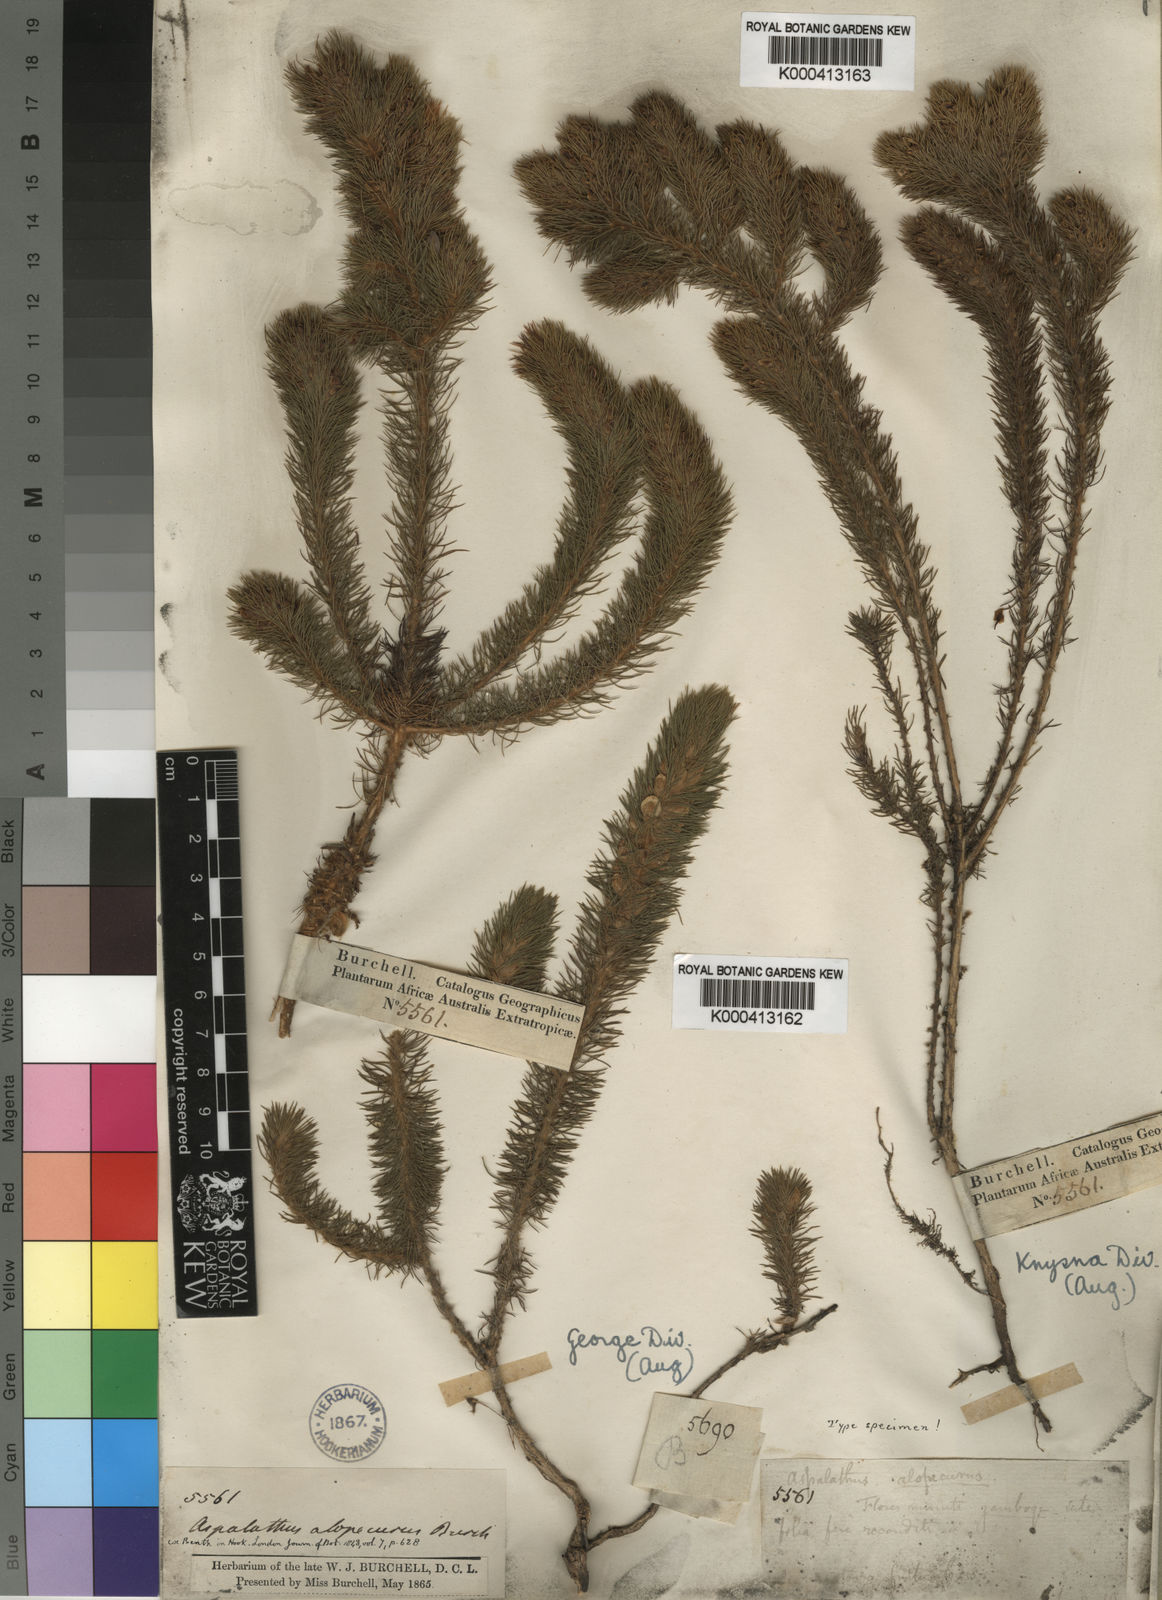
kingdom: Plantae
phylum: Tracheophyta
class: Magnoliopsida
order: Fabales
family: Fabaceae
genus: Aspalathus
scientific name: Aspalathus
